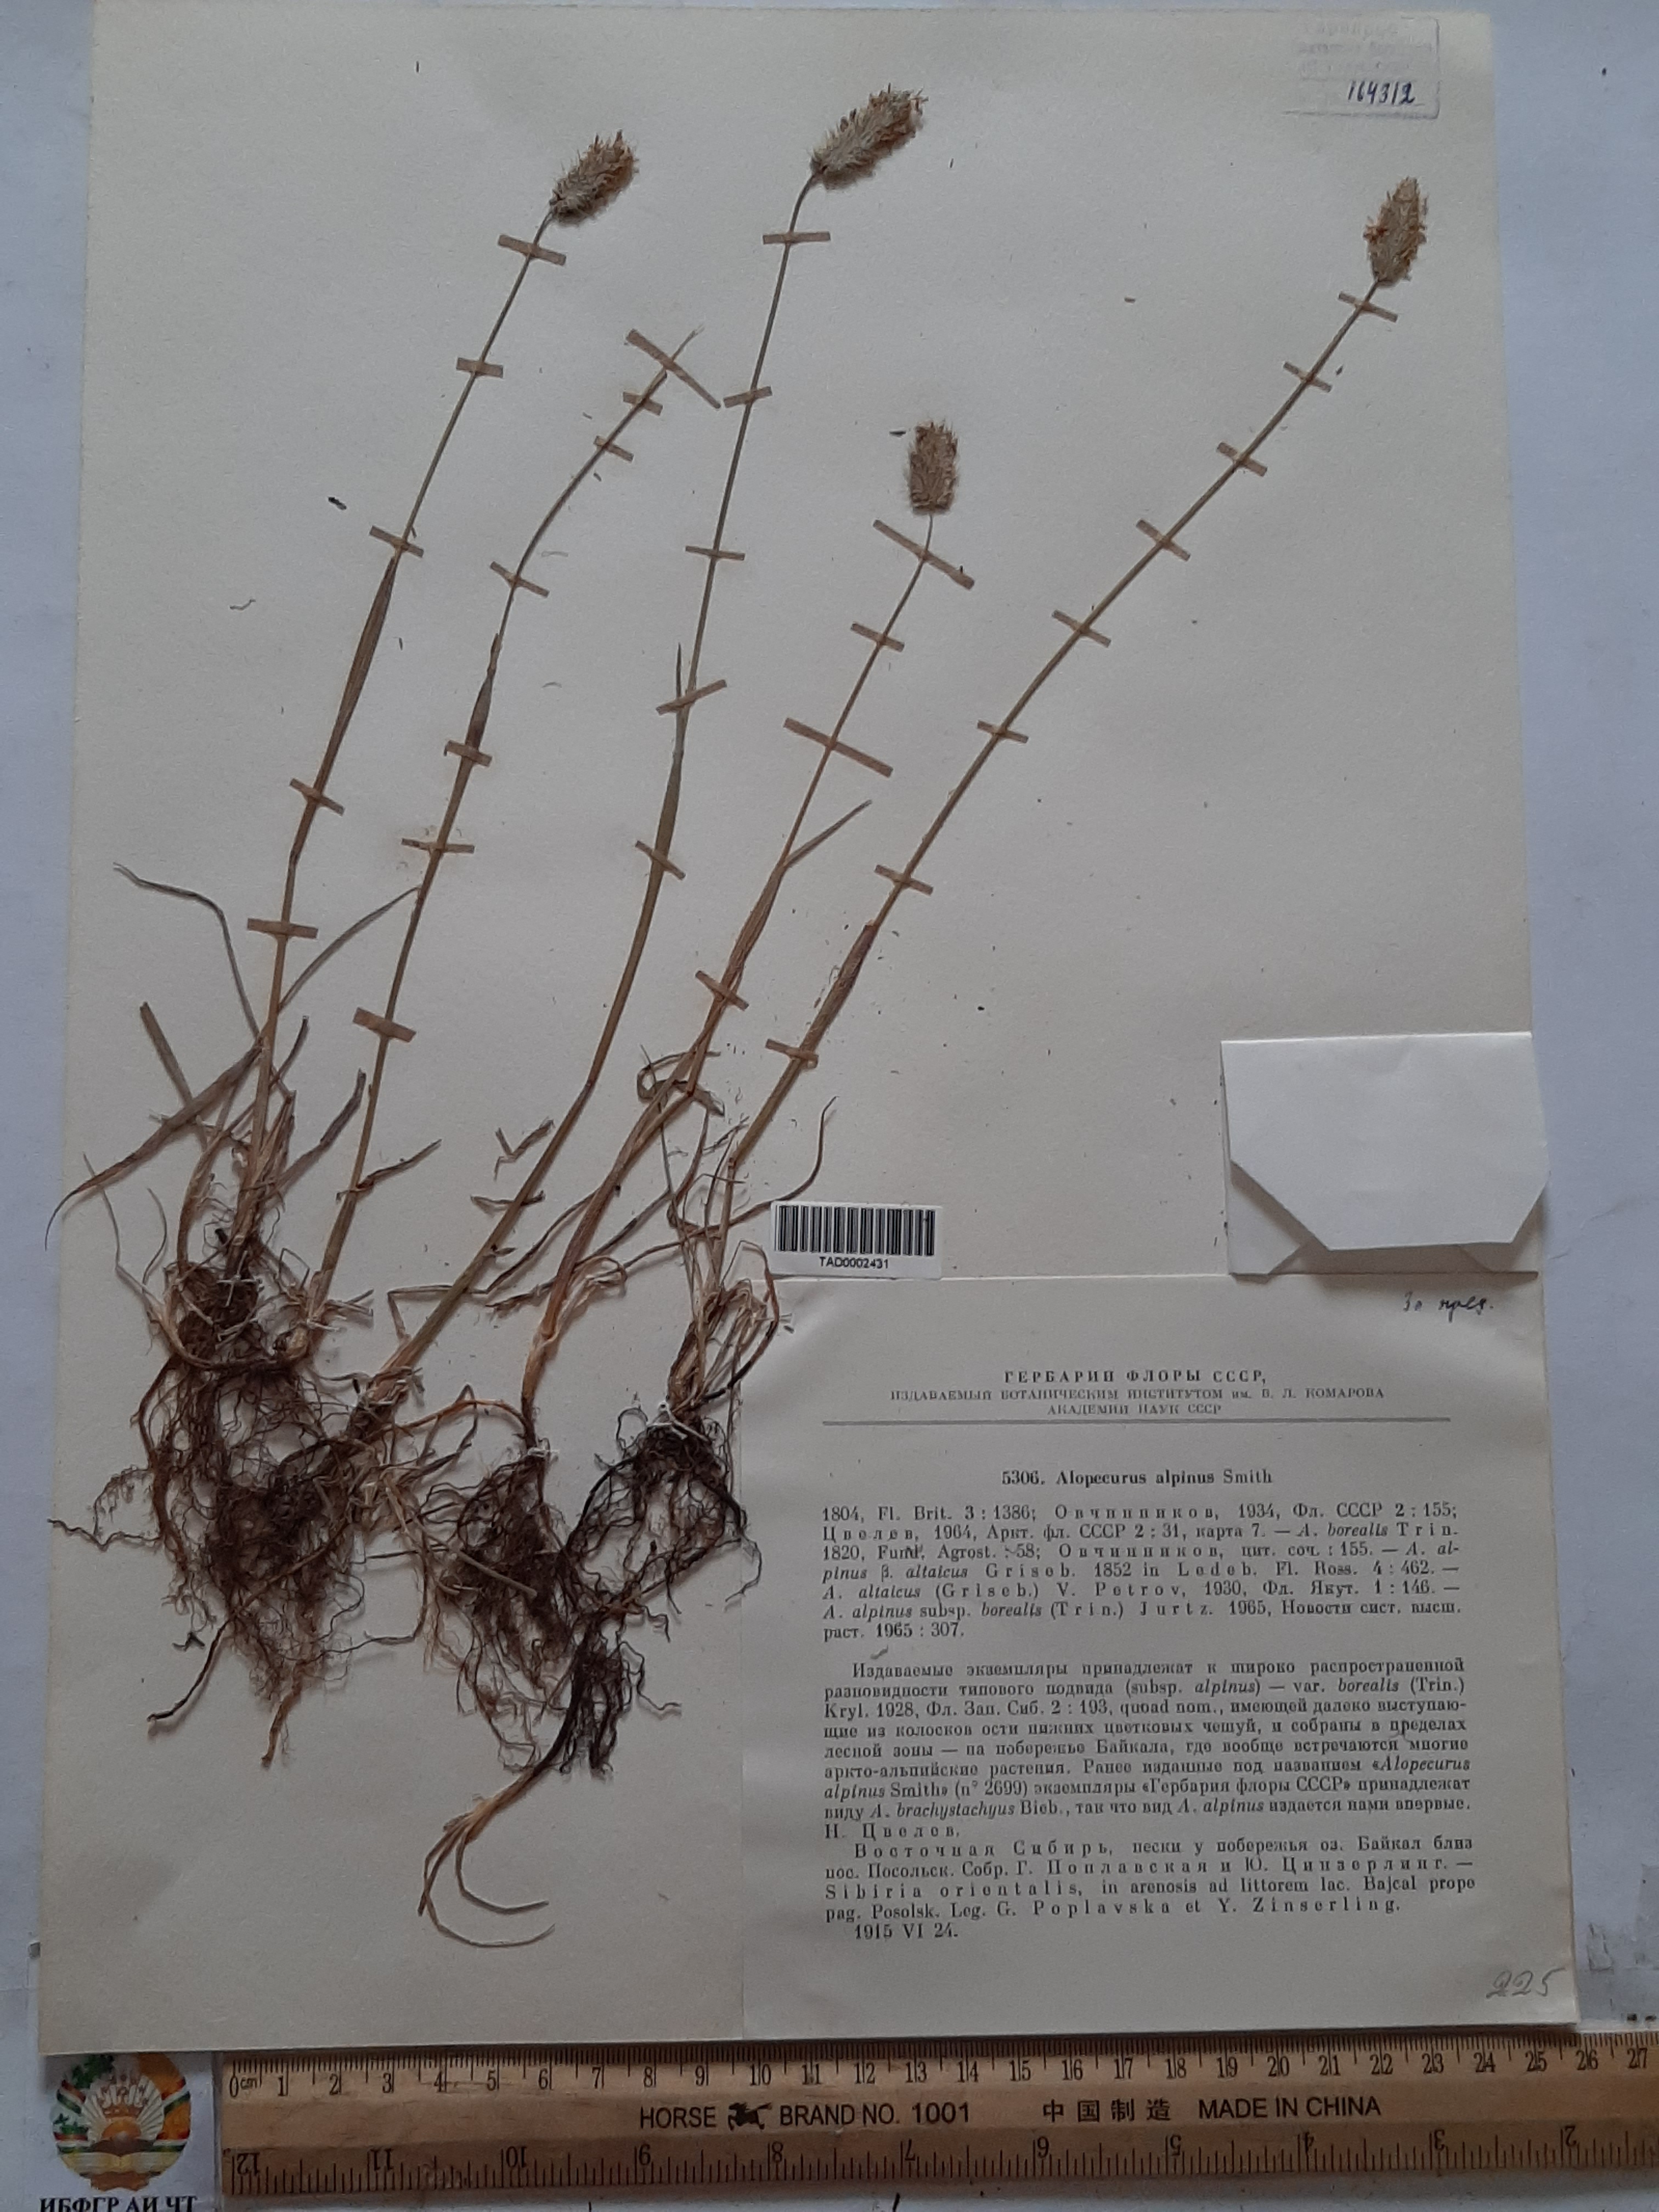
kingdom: Plantae
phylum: Tracheophyta
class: Liliopsida
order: Poales
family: Poaceae
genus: Alopecurus
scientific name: Alopecurus magellanicus
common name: Alpine foxtail
